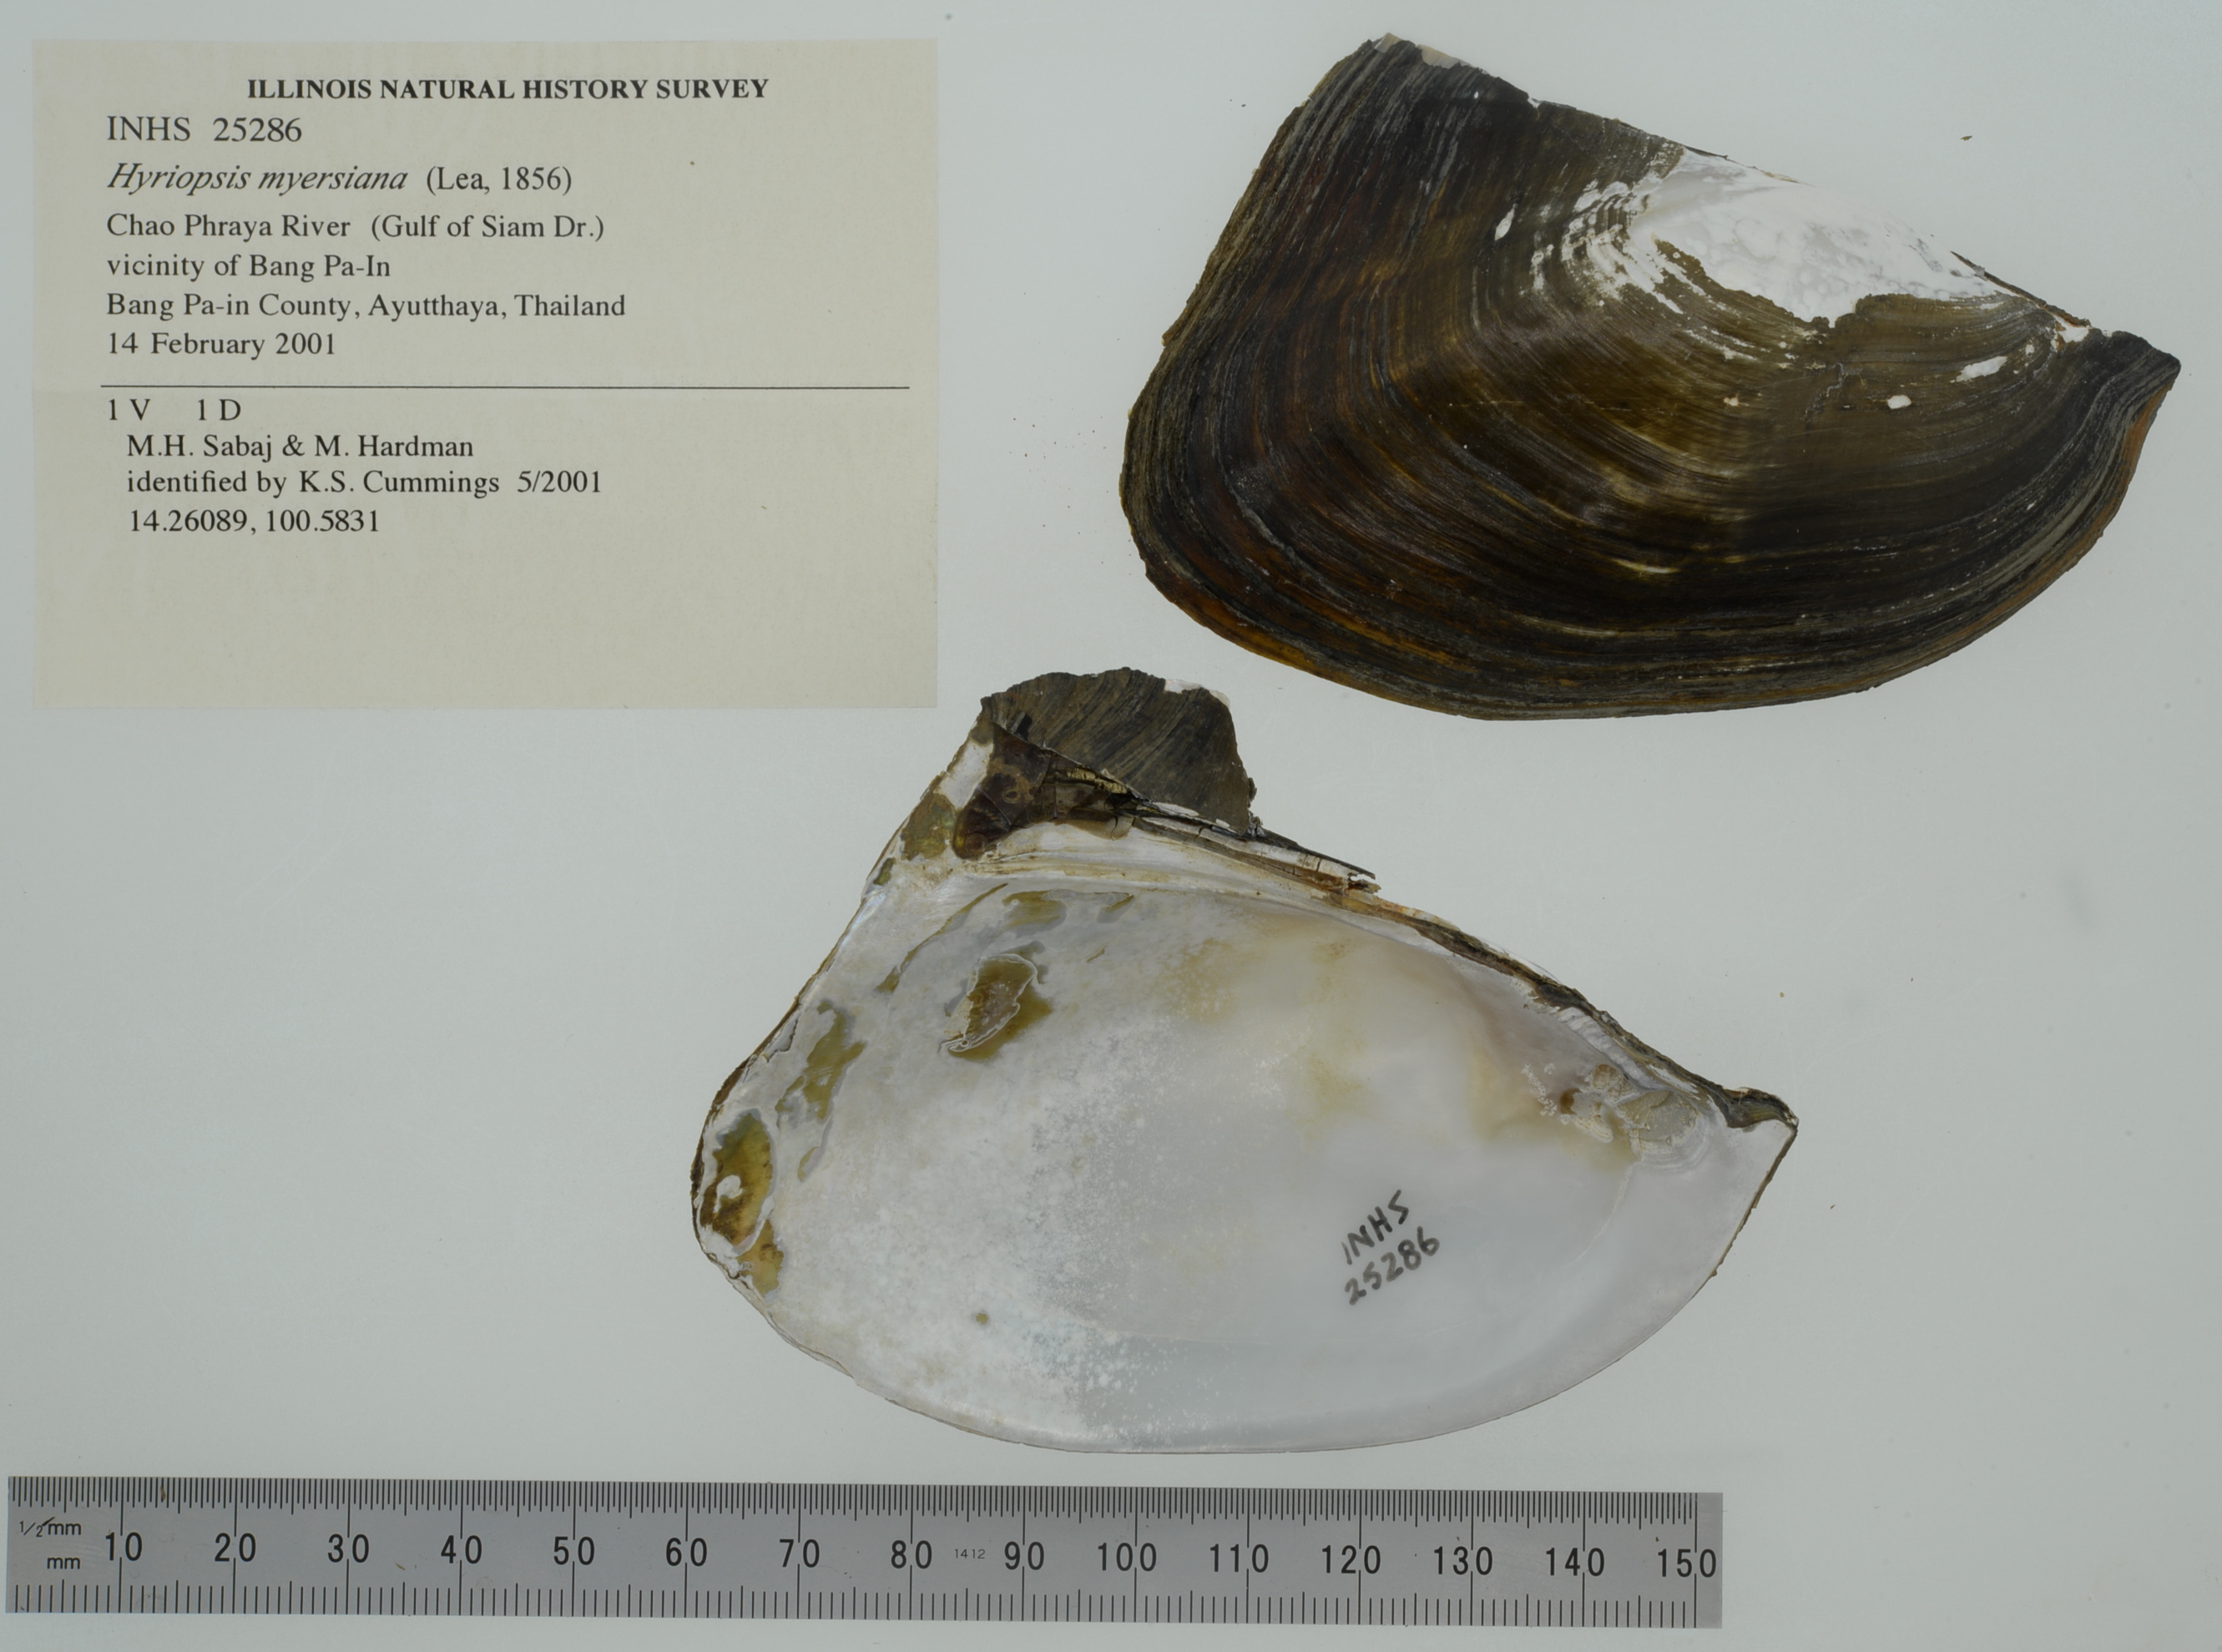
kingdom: Animalia
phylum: Mollusca
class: Bivalvia
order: Unionida
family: Unionidae
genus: Hyriopsis
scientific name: Hyriopsis myersiana
